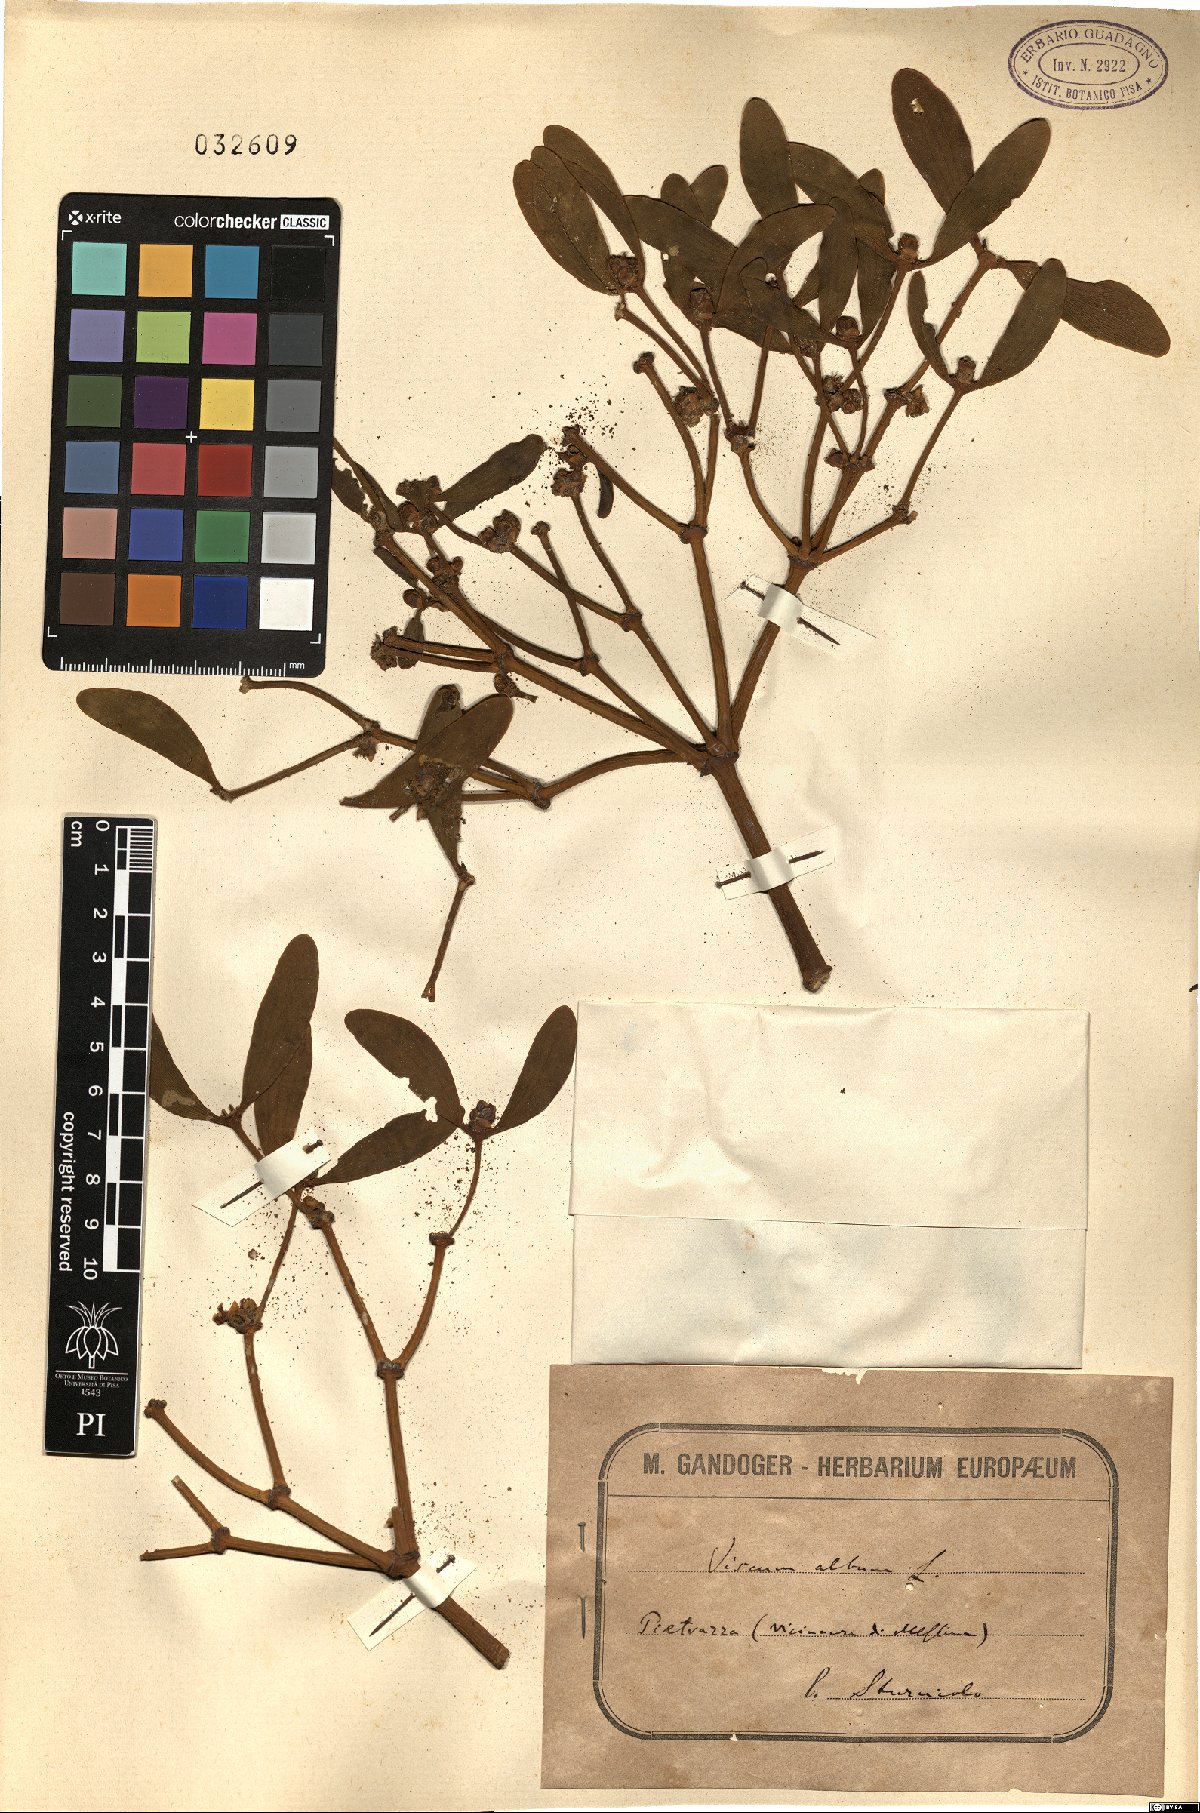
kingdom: Plantae
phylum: Tracheophyta
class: Magnoliopsida
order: Santalales
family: Viscaceae
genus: Viscum
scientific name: Viscum album
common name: Mistletoe
